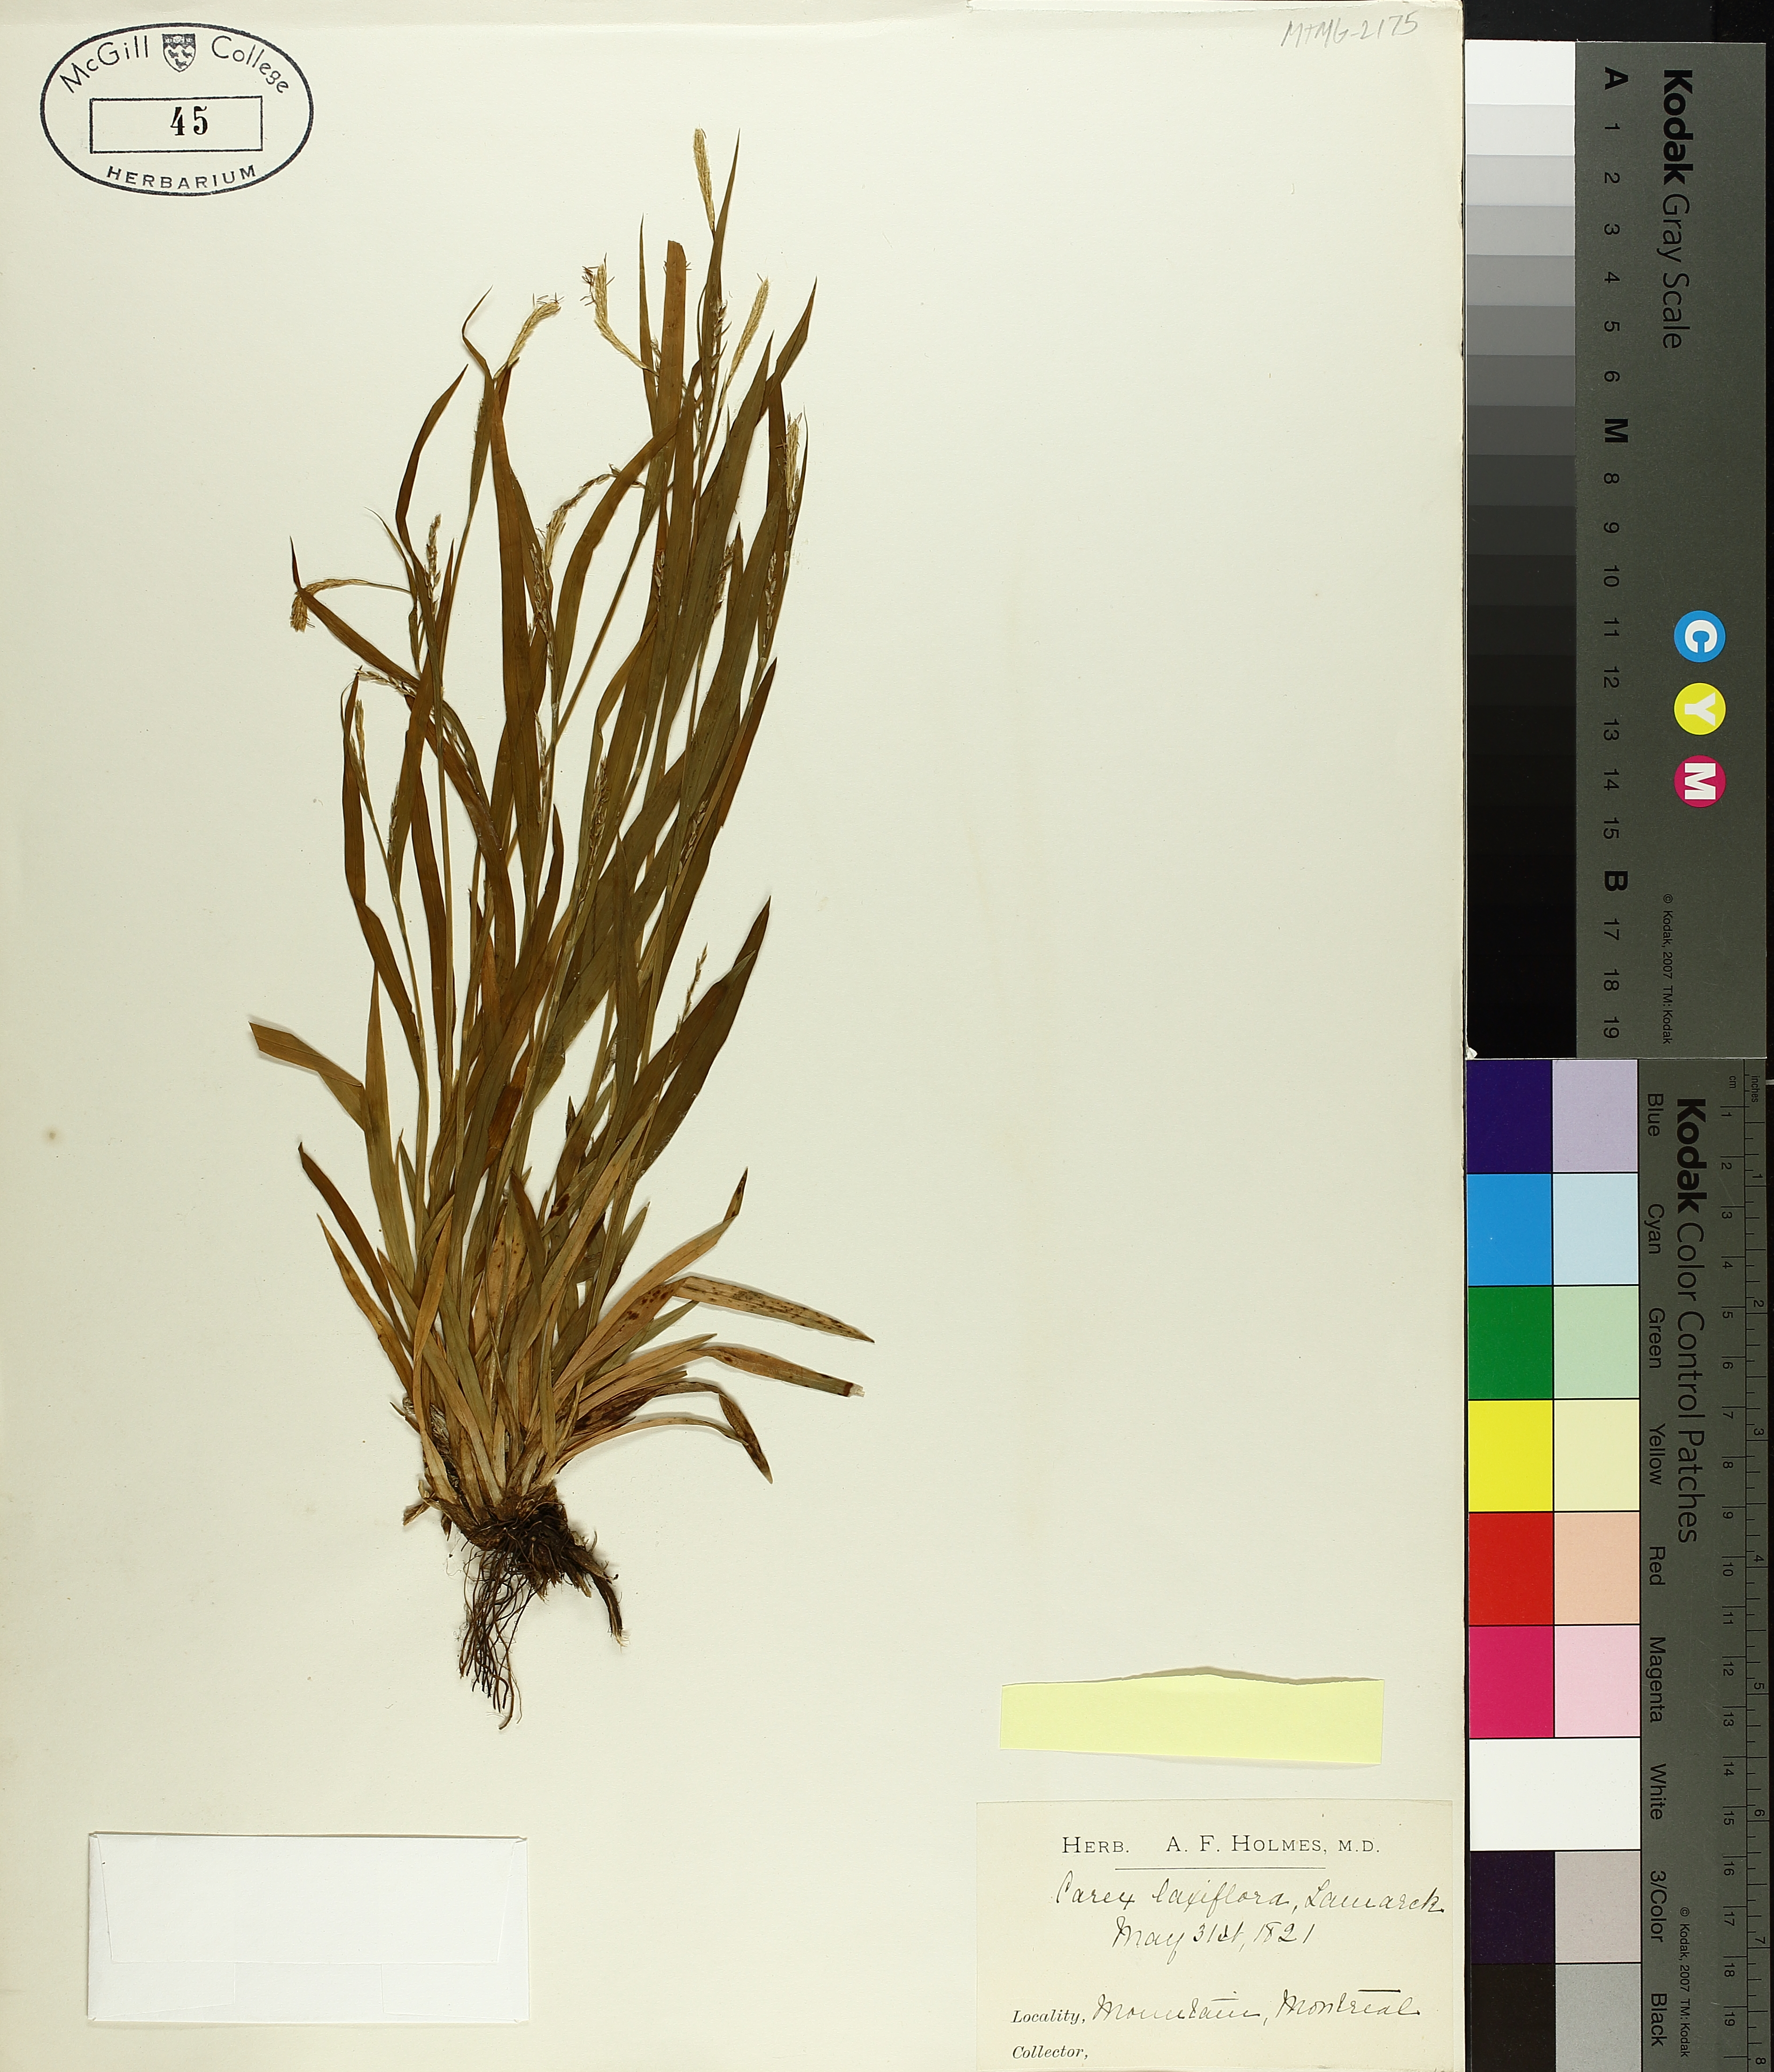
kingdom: Plantae
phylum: Tracheophyta
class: Liliopsida
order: Poales
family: Cyperaceae
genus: Carex
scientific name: Carex laxiflora
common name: Beech wood sedge
